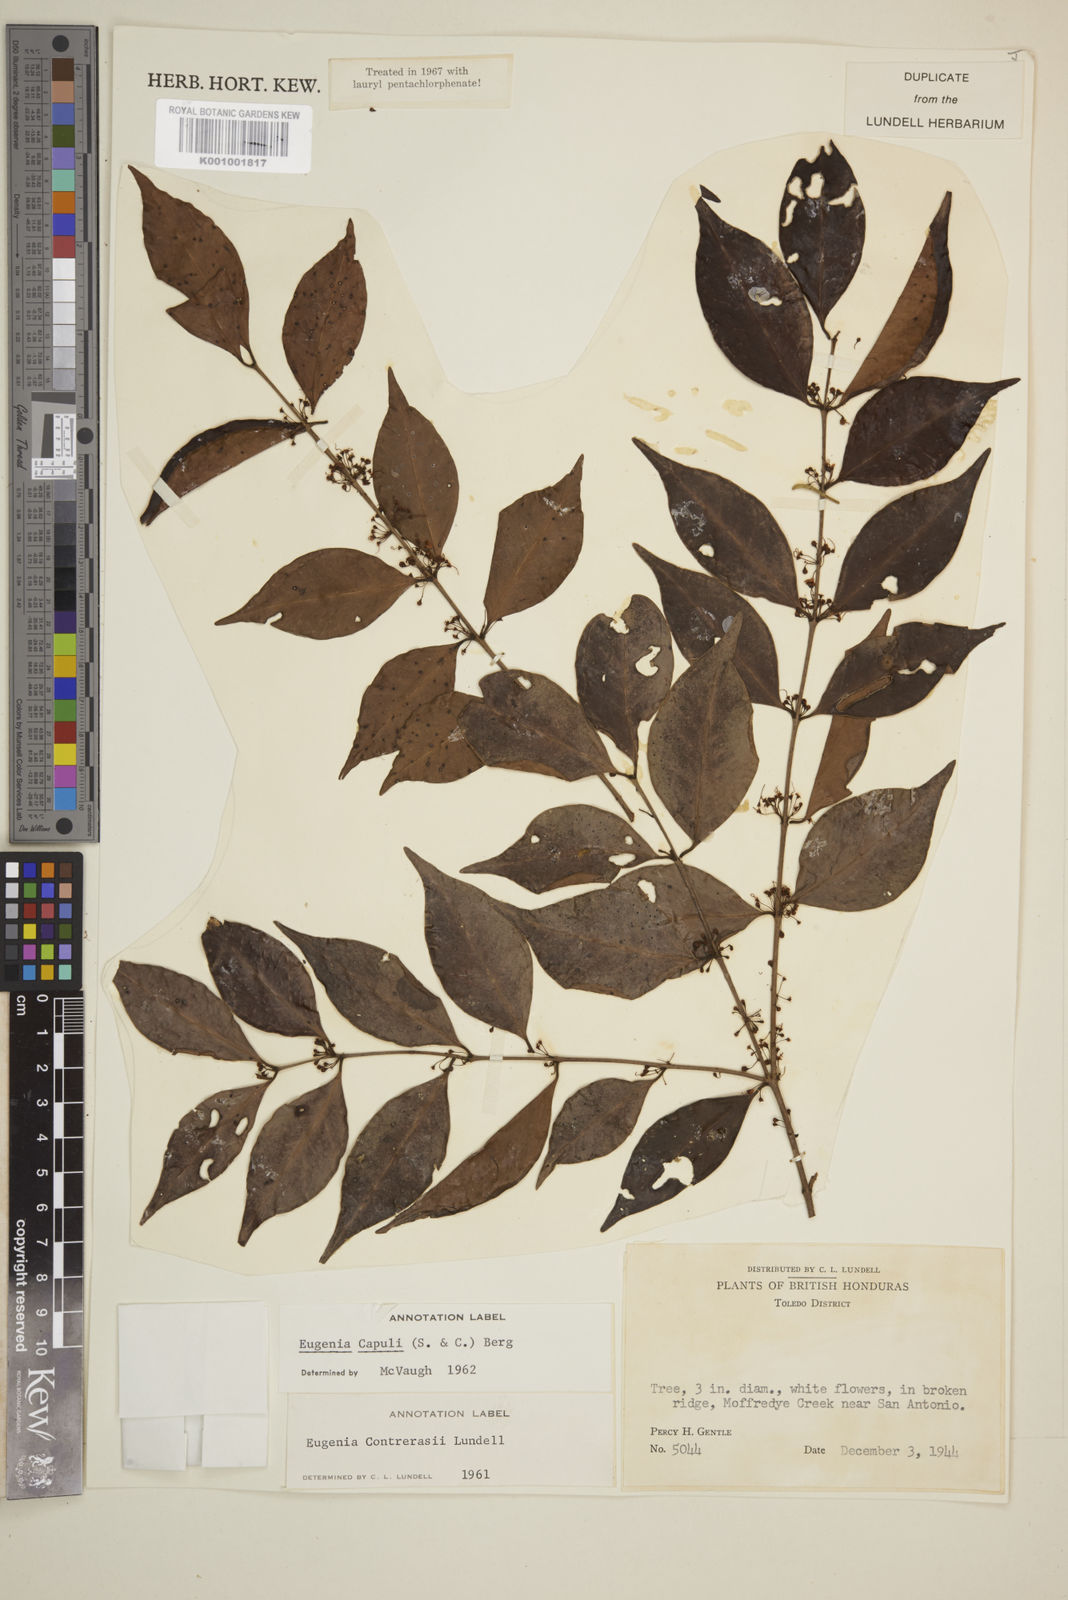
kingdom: Plantae
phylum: Tracheophyta
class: Magnoliopsida
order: Myrtales
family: Myrtaceae
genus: Eugenia
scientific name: Eugenia capuli
